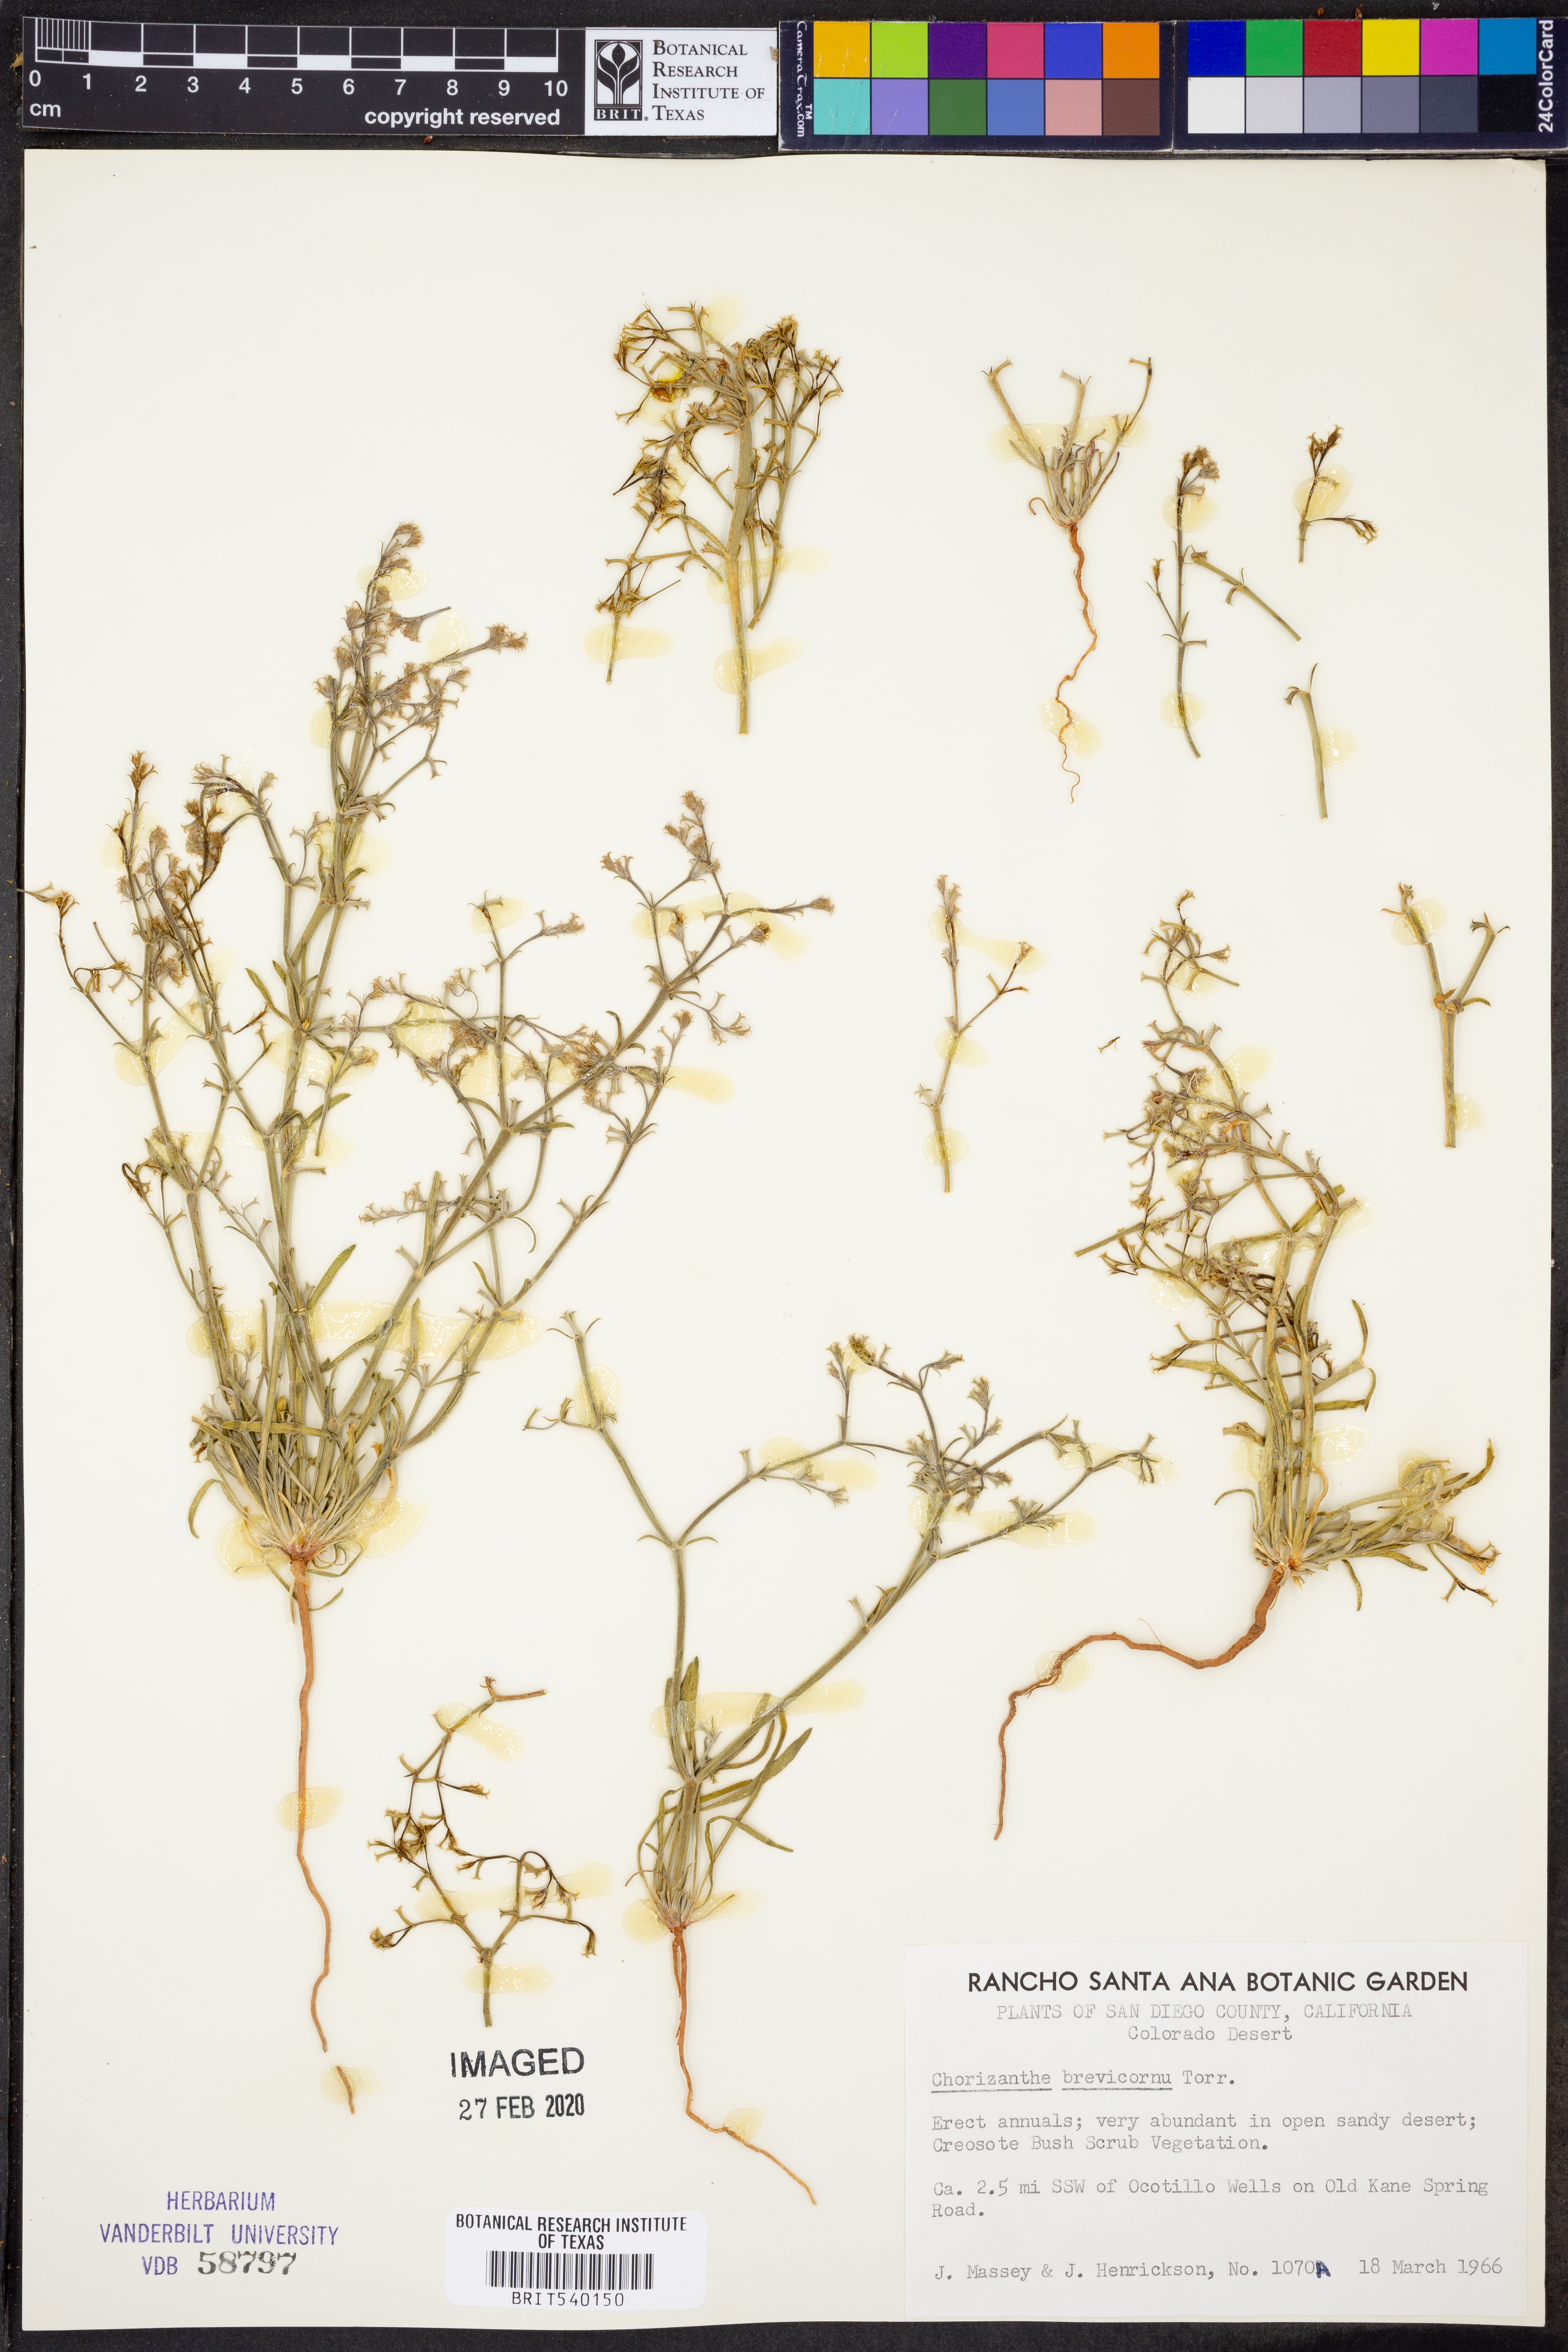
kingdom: Plantae
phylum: Tracheophyta
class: Magnoliopsida
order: Caryophyllales
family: Polygonaceae
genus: Chorizanthe
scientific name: Chorizanthe brevicornu
